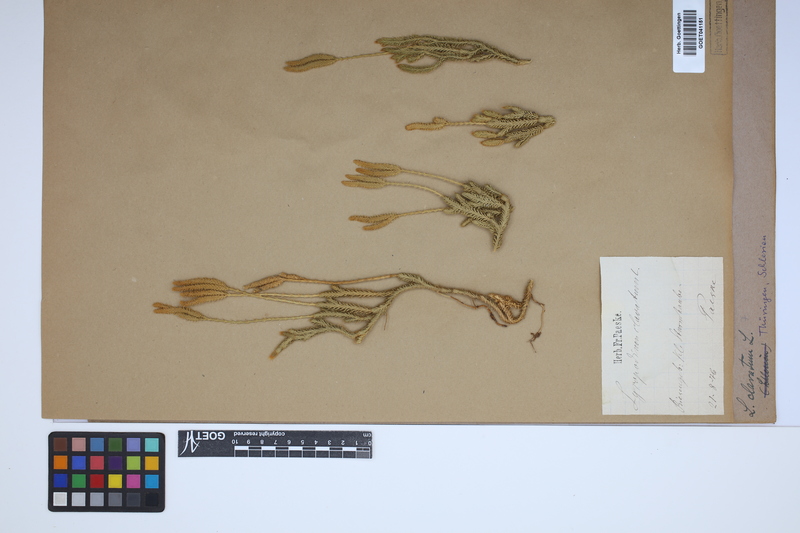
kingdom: Plantae
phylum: Tracheophyta
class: Lycopodiopsida
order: Lycopodiales
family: Lycopodiaceae
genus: Lycopodium
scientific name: Lycopodium clavatum
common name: Stag's-horn clubmoss
